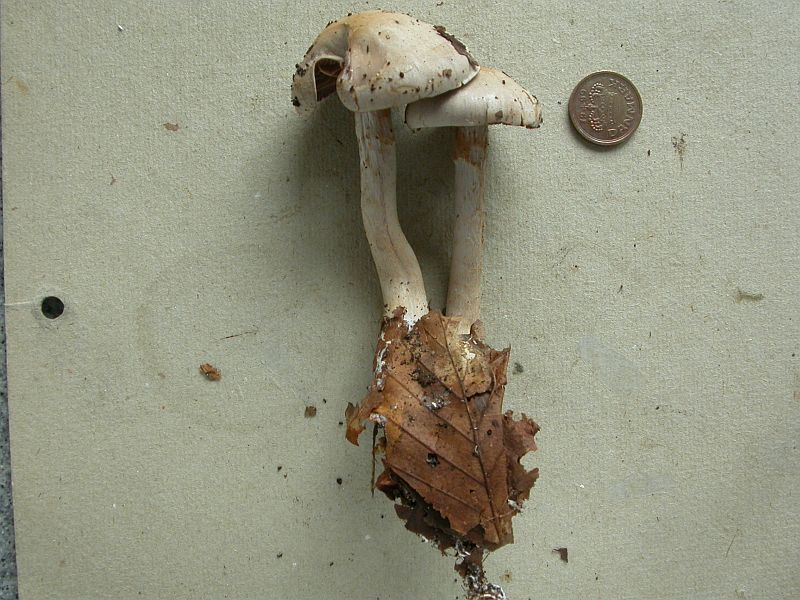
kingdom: Fungi
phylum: Basidiomycota
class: Agaricomycetes
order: Agaricales
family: Cortinariaceae
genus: Cortinarius
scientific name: Cortinarius albocyaneus
